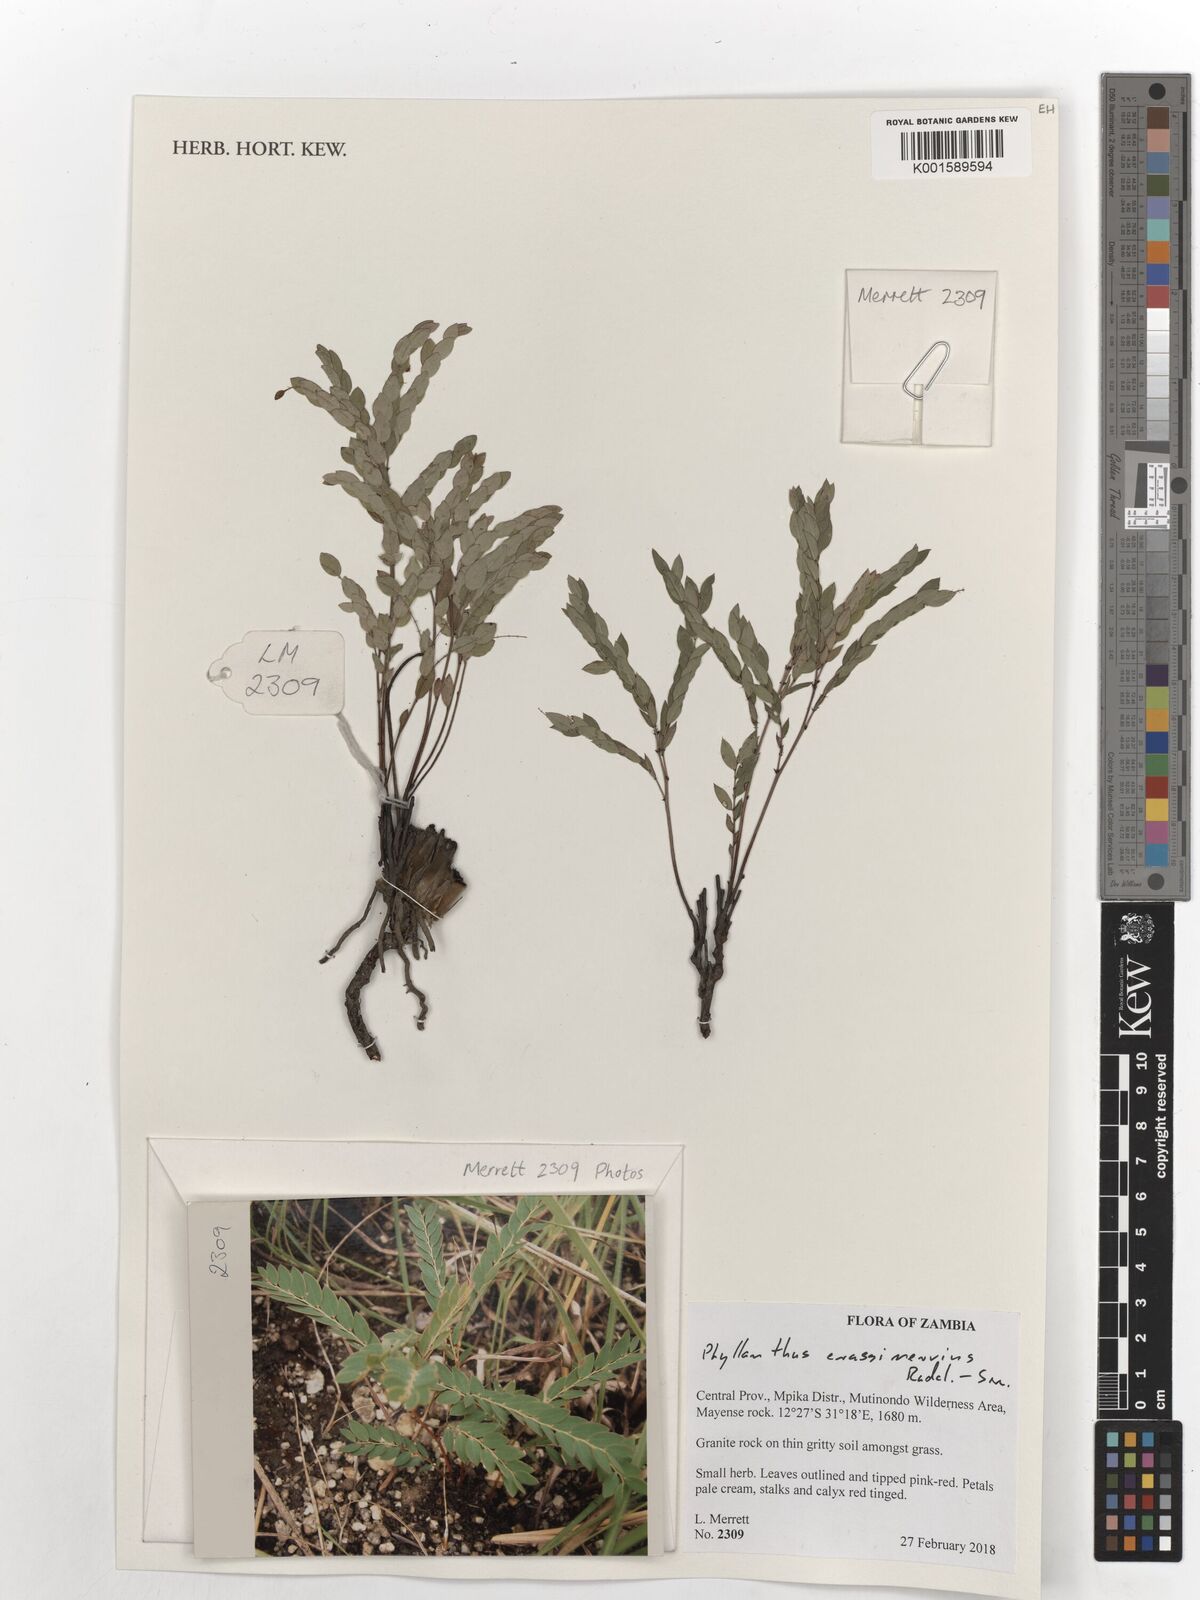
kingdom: Plantae
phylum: Tracheophyta
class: Magnoliopsida
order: Malpighiales
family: Phyllanthaceae
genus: Phyllanthus
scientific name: Phyllanthus crassinervius
